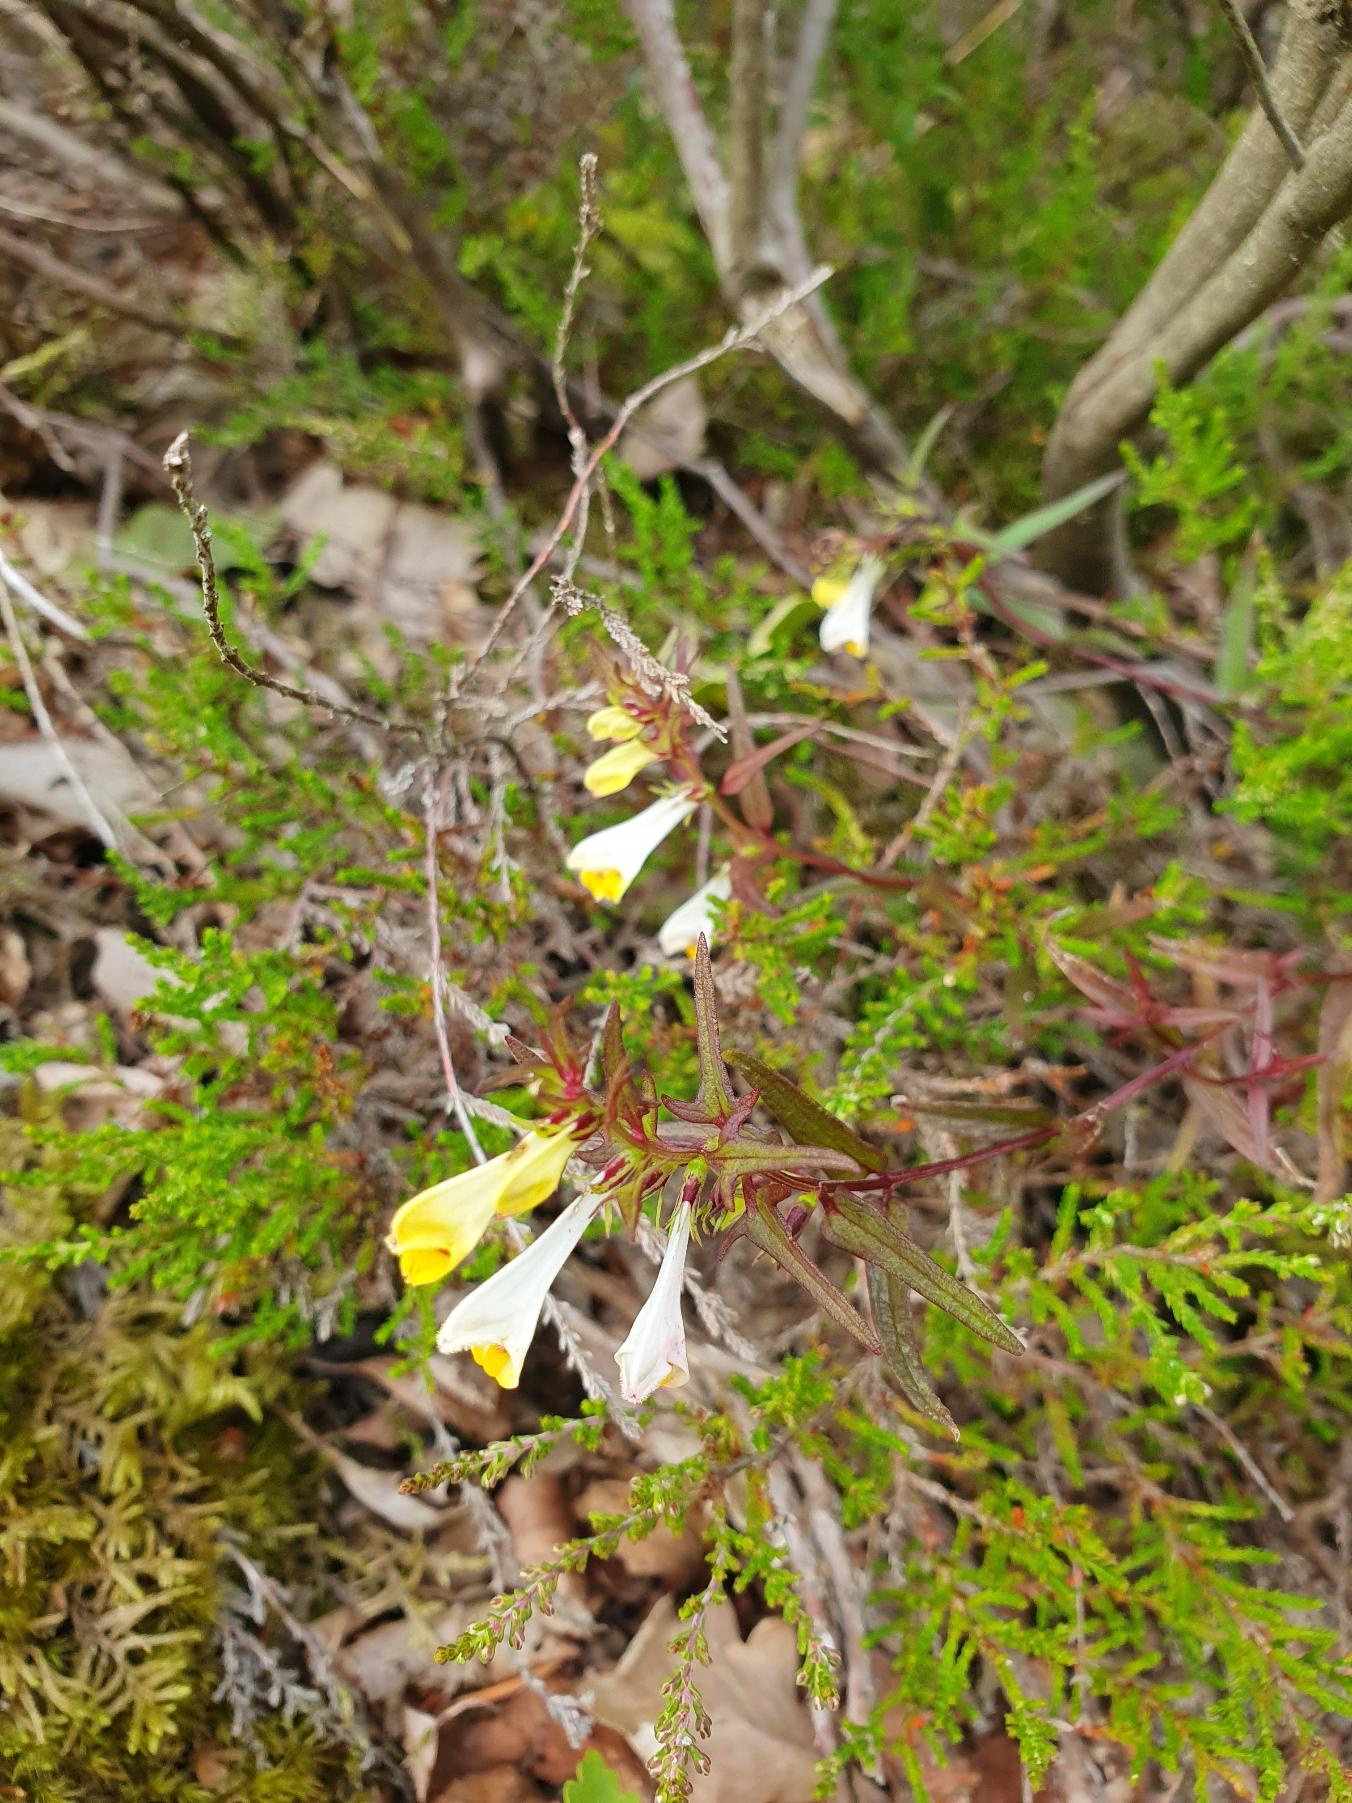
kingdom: Plantae
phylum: Tracheophyta
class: Magnoliopsida
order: Lamiales
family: Orobanchaceae
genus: Melampyrum
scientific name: Melampyrum pratense
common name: Almindelig kohvede
